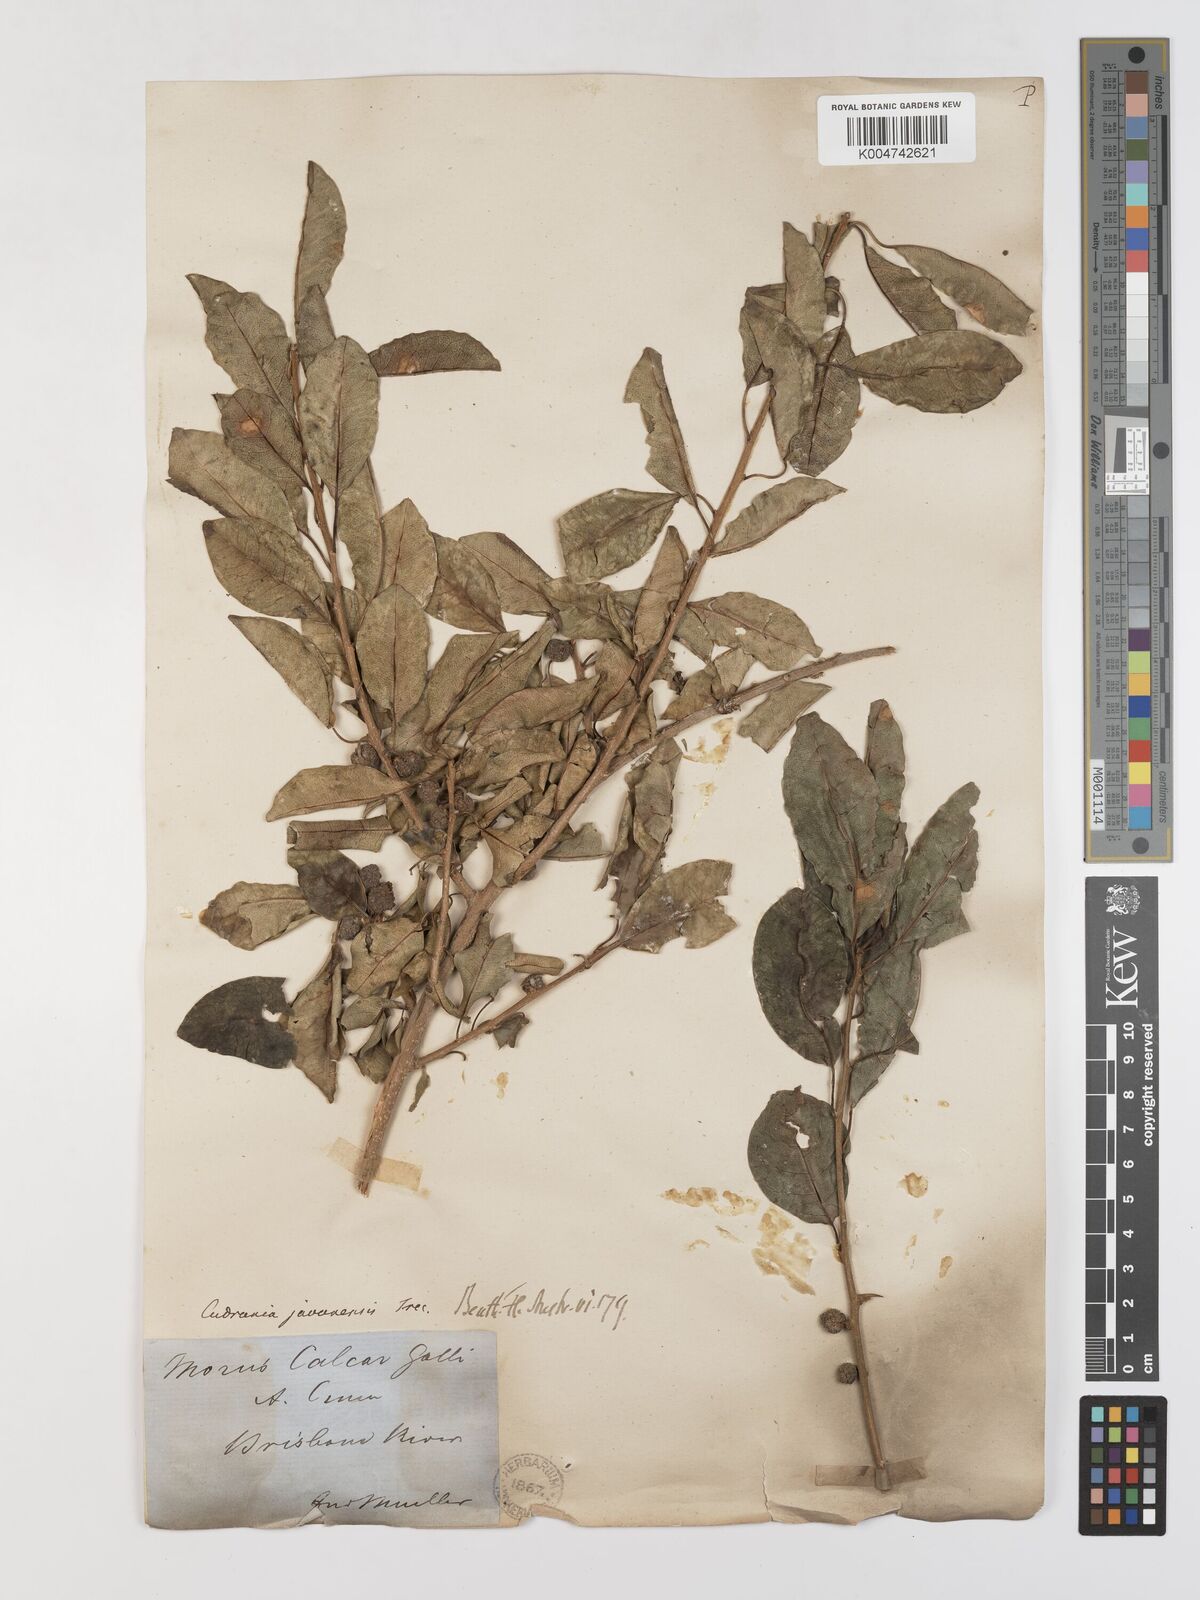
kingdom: Plantae
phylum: Tracheophyta
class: Magnoliopsida
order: Rosales
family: Moraceae
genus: Maclura
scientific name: Maclura cochinchinensis
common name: Cockspurthorn
